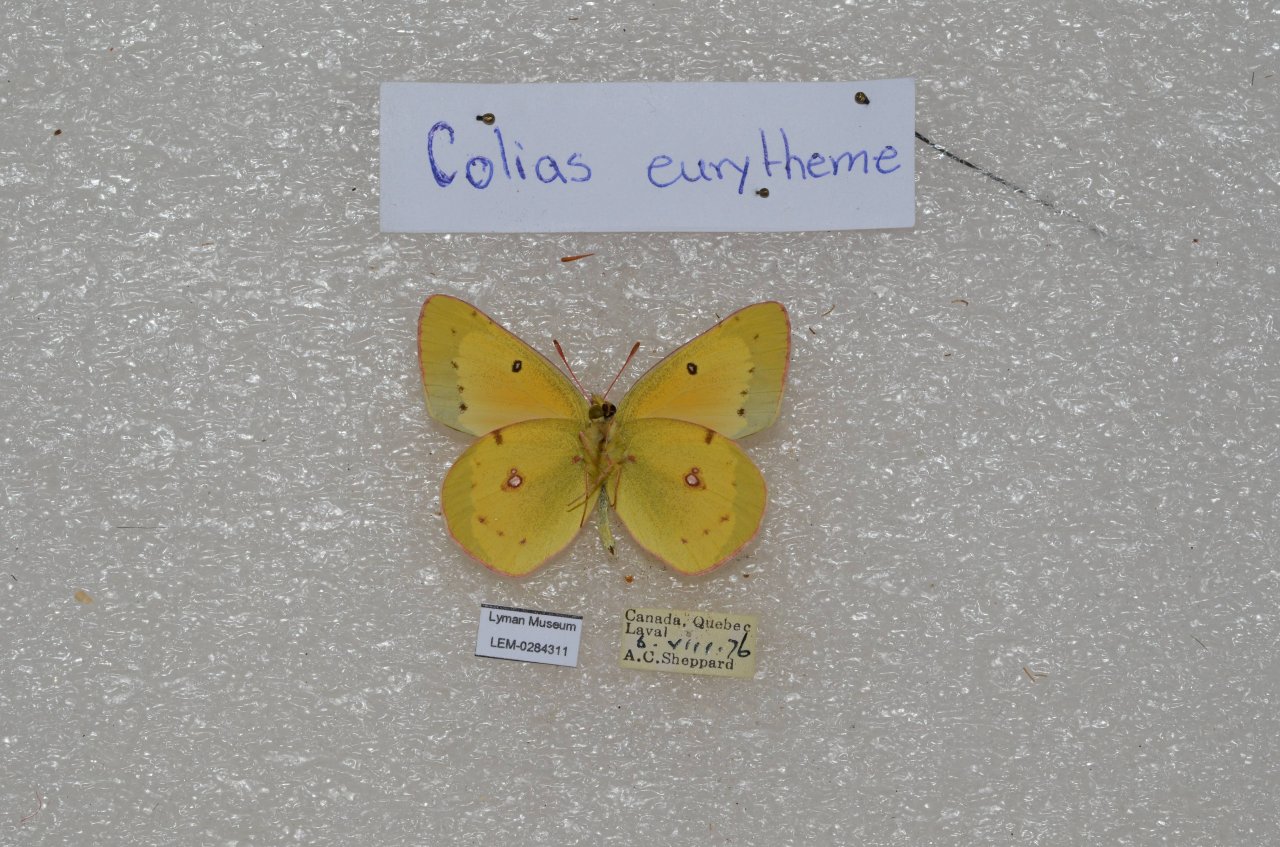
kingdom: Animalia
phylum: Arthropoda
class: Insecta
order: Lepidoptera
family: Pieridae
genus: Colias
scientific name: Colias eurytheme
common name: Orange Sulphur
